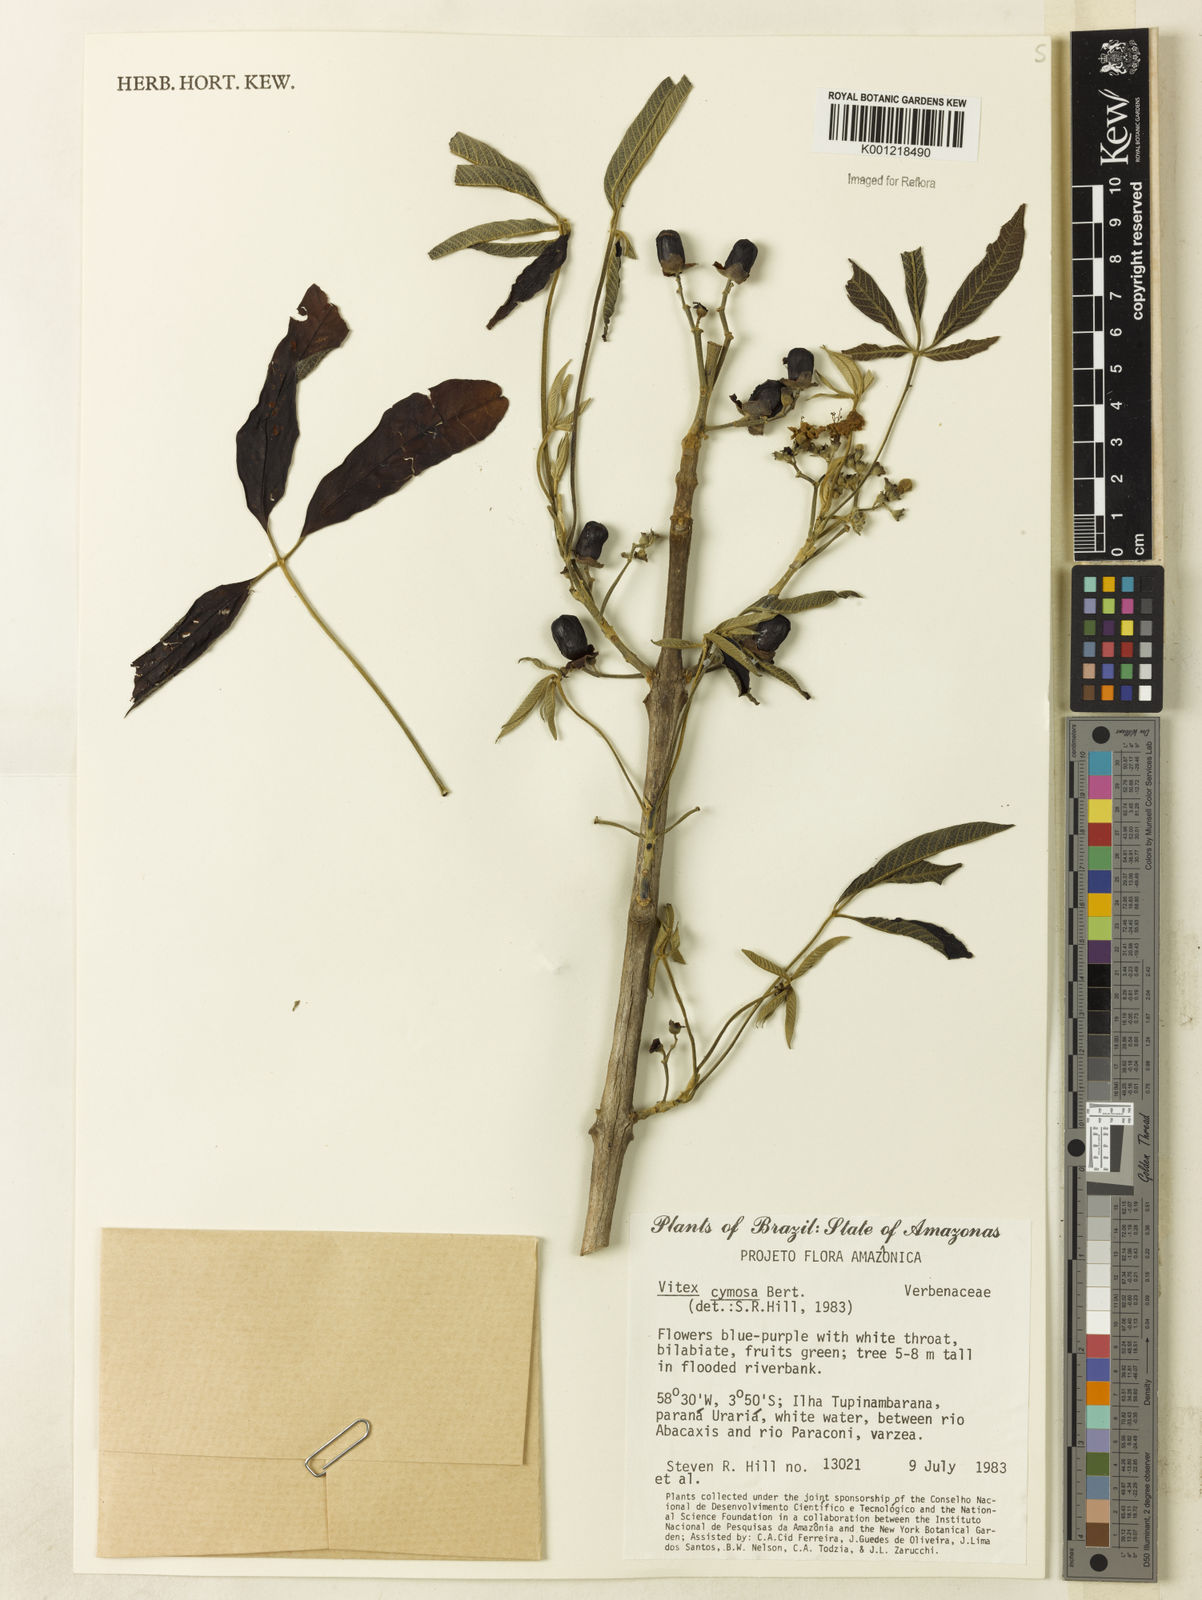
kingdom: Plantae
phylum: Tracheophyta
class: Magnoliopsida
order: Lamiales
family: Lamiaceae
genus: Vitex
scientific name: Vitex cymosa
